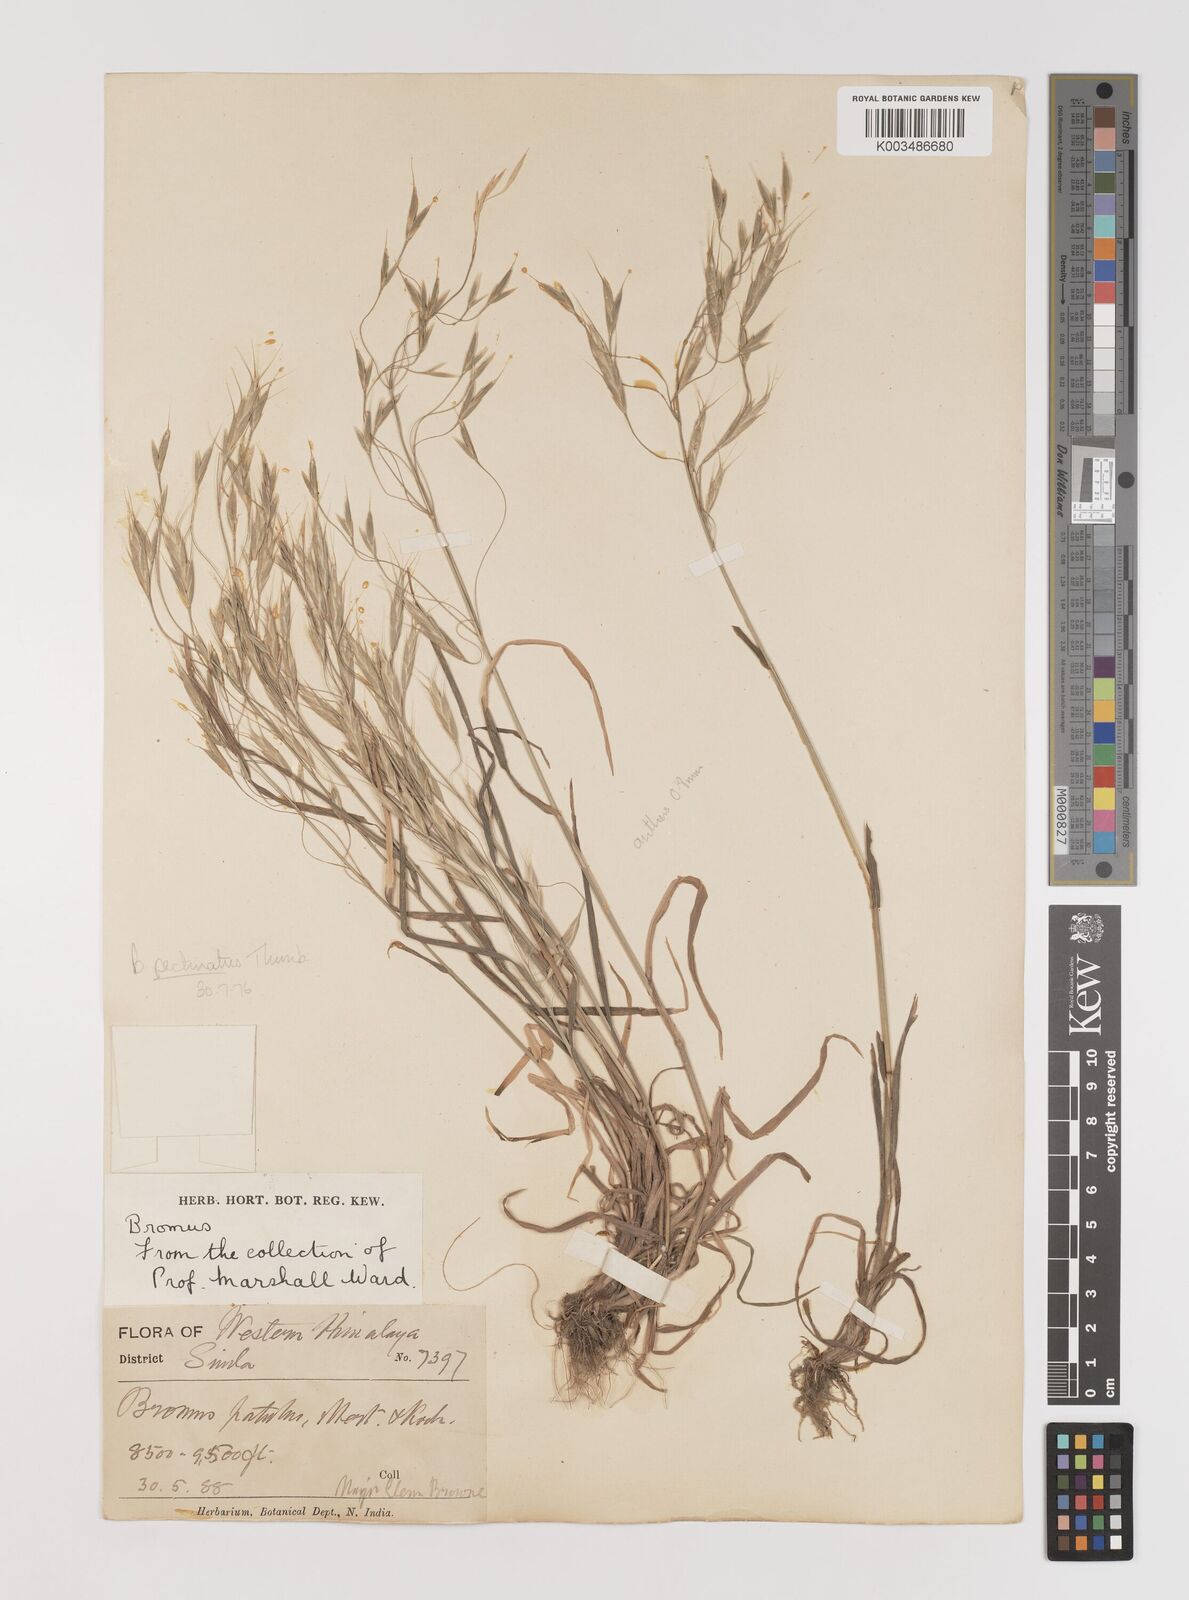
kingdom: Plantae
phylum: Tracheophyta
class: Liliopsida
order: Poales
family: Poaceae
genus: Bromus
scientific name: Bromus pectinatus
